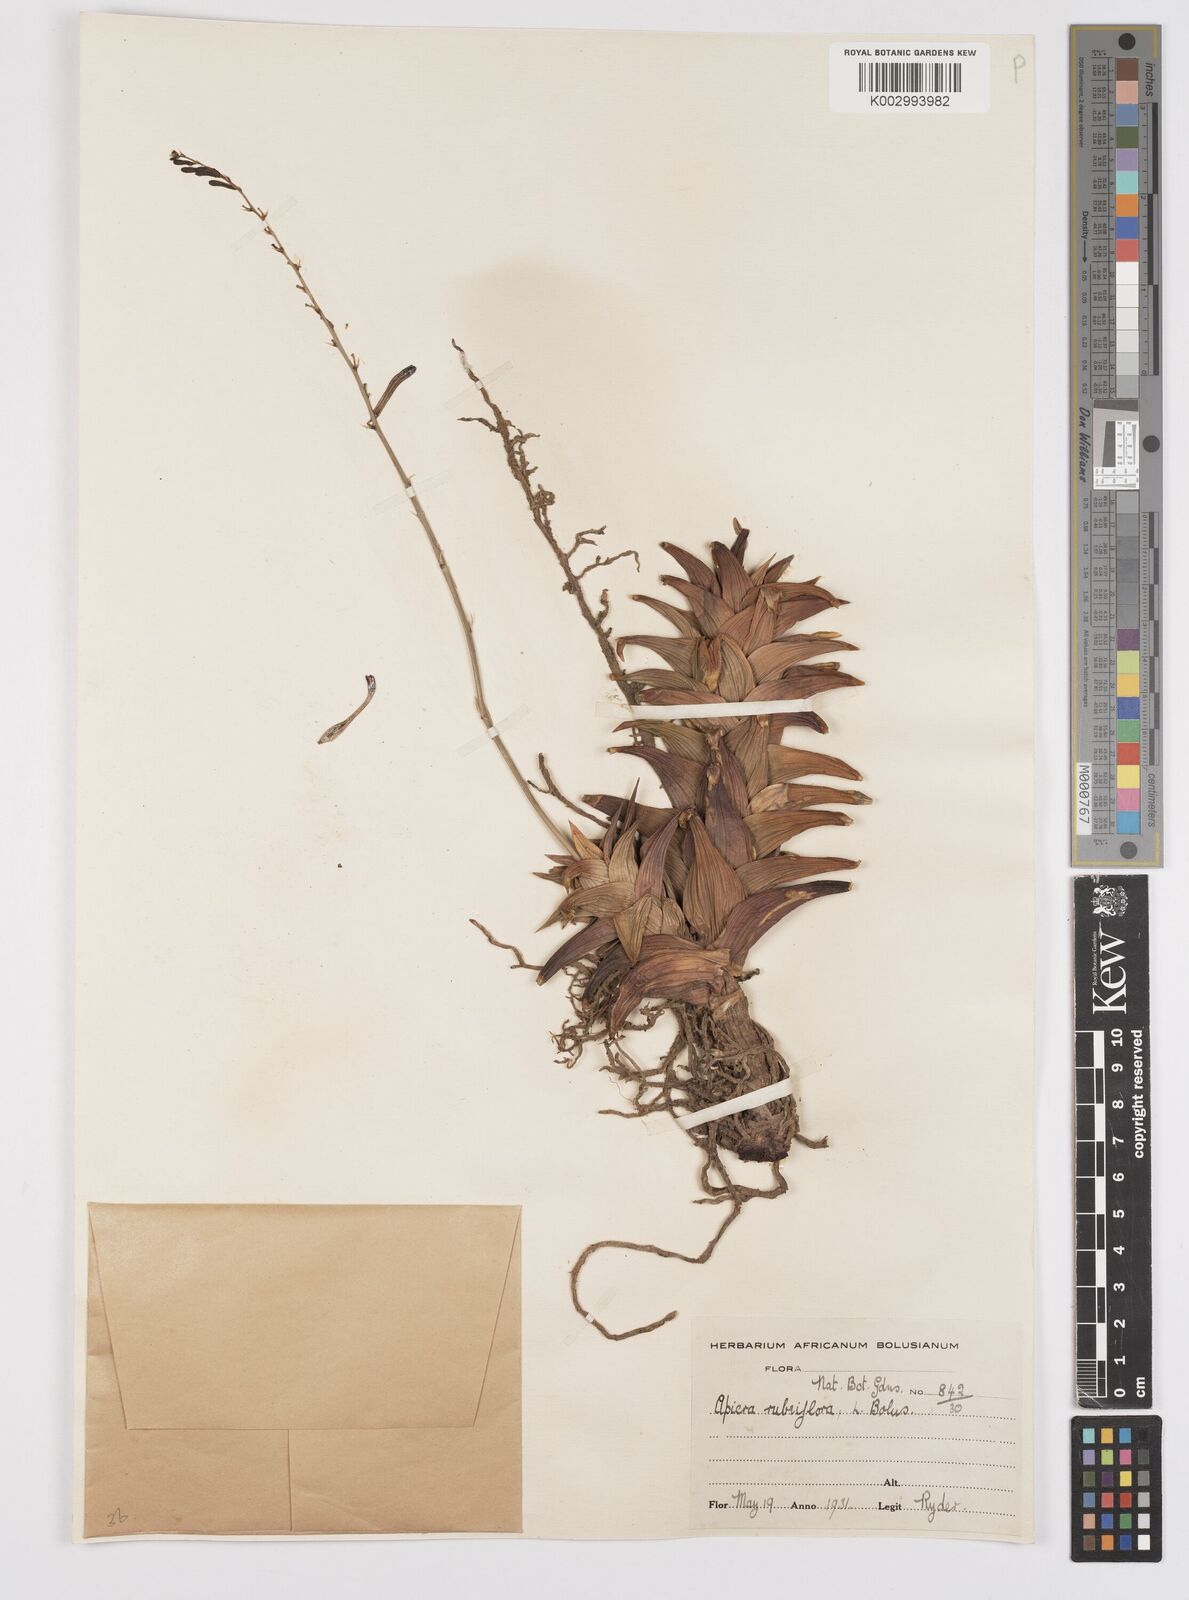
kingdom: Plantae
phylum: Tracheophyta
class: Liliopsida
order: Asparagales
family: Asphodelaceae
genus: Astroloba
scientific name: Astroloba rubriflora
